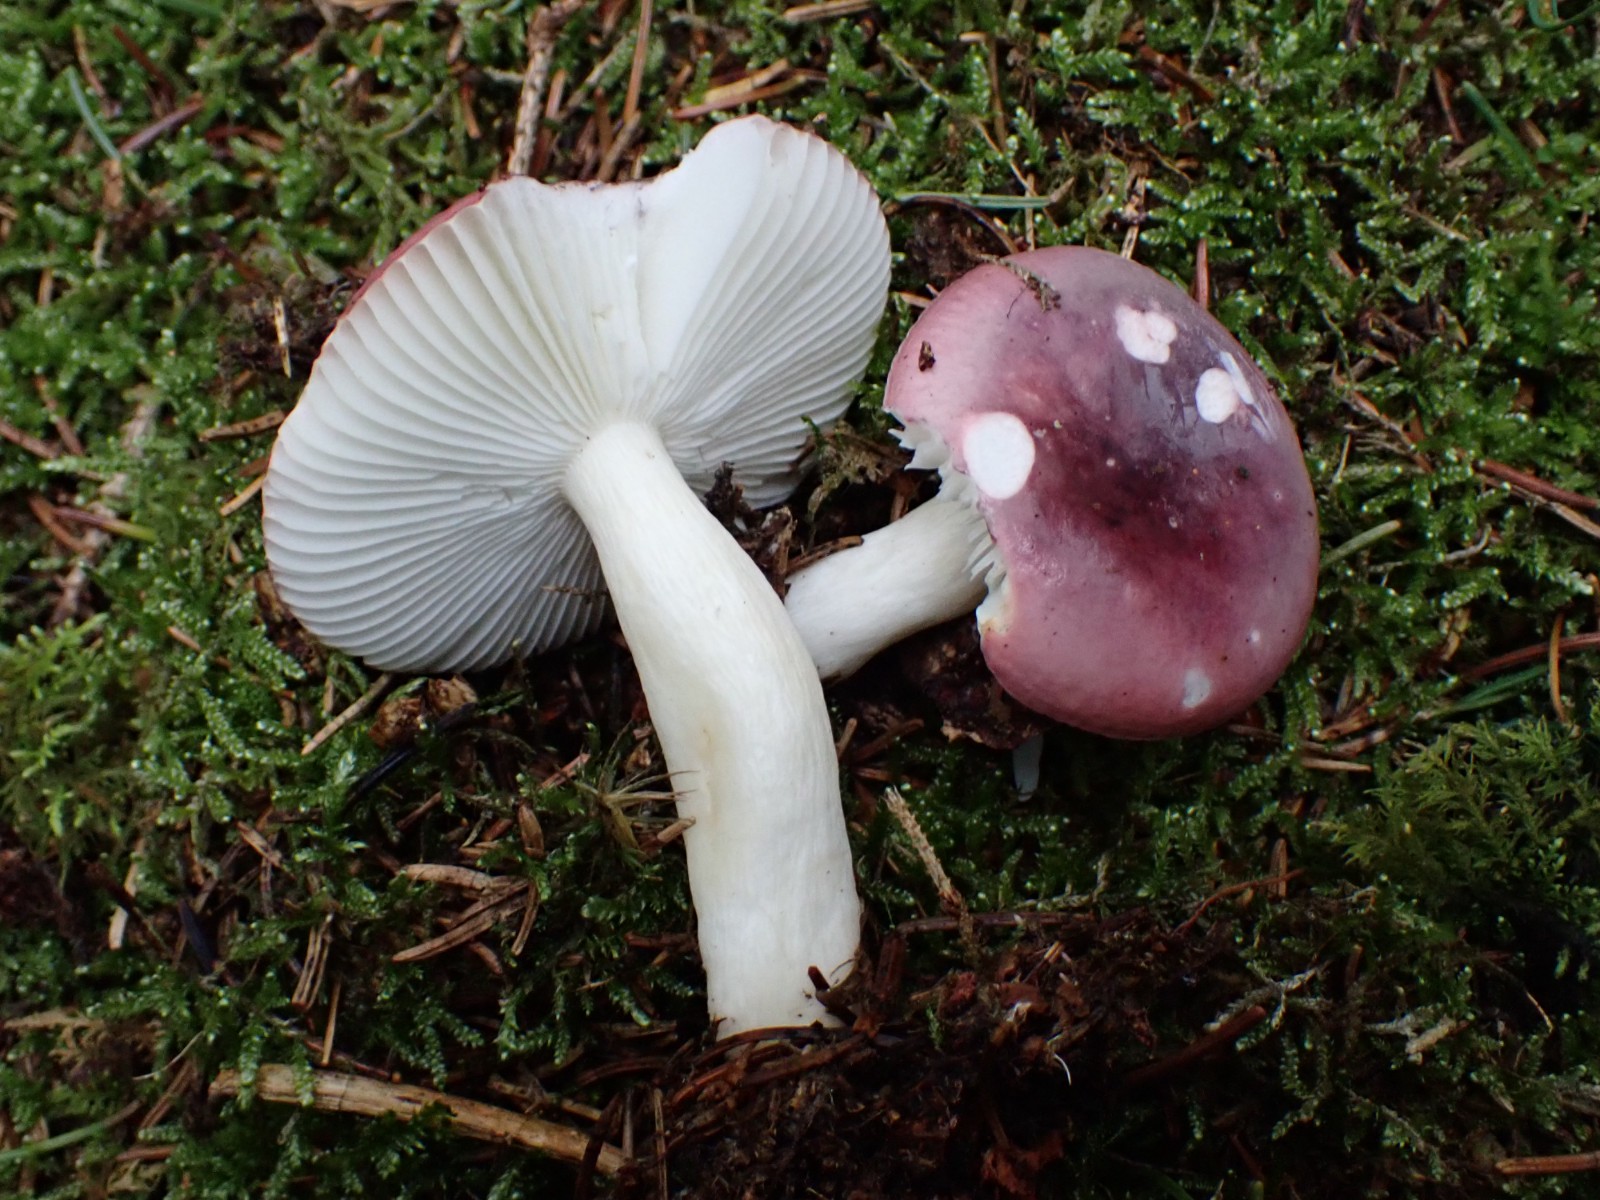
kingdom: Fungi
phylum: Basidiomycota
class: Agaricomycetes
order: Russulales
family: Russulaceae
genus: Russula
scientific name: Russula atrorubens
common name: sortrød skørhat
